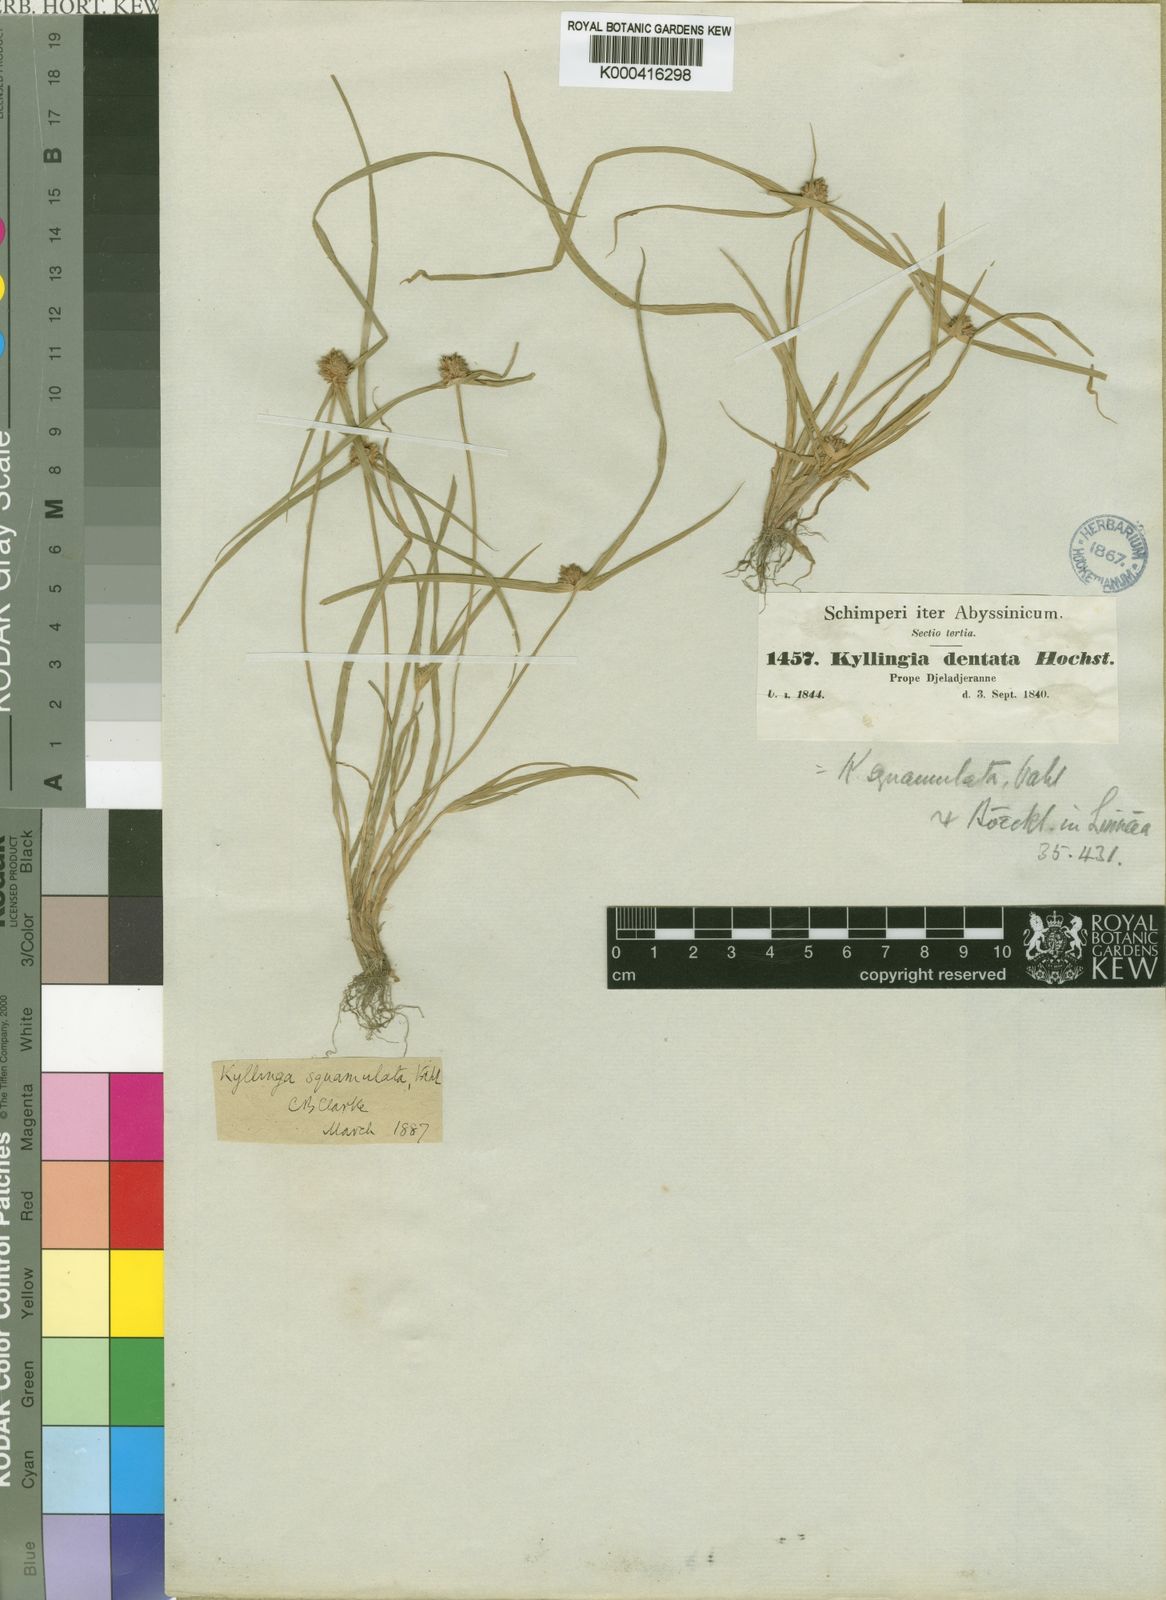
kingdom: Plantae
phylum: Tracheophyta
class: Liliopsida
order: Poales
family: Cyperaceae
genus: Cyperus
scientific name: Cyperus metzii
